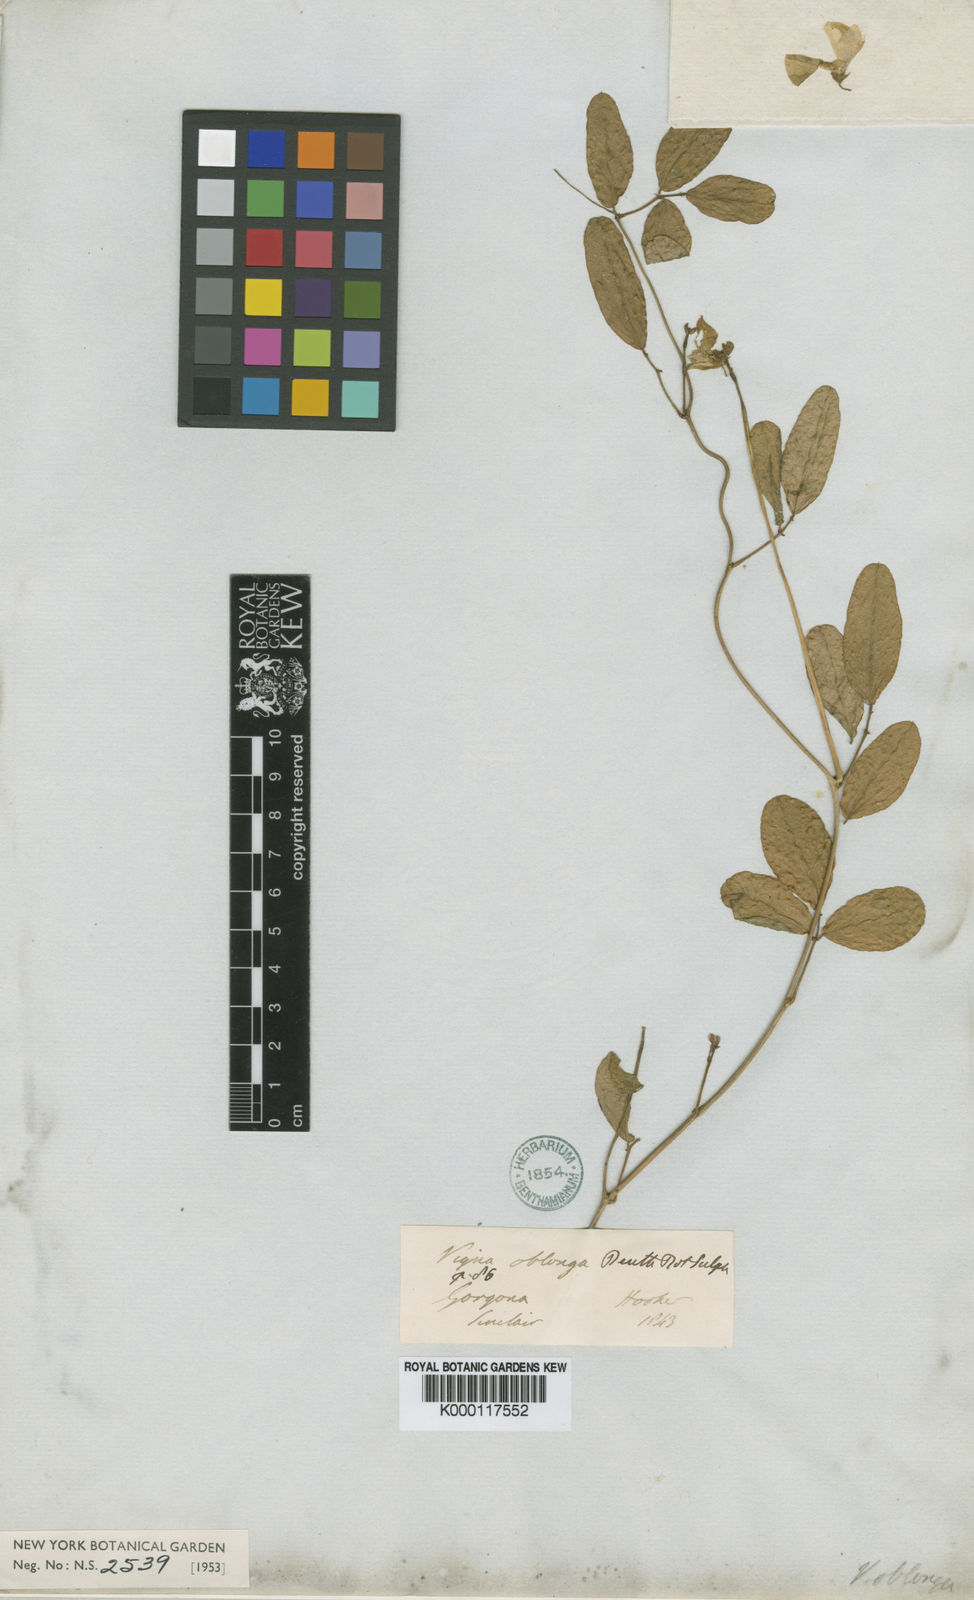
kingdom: Plantae
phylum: Tracheophyta
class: Magnoliopsida
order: Fabales
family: Fabaceae
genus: Phaseolus
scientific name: Phaseolus vulgaris
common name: Bean
